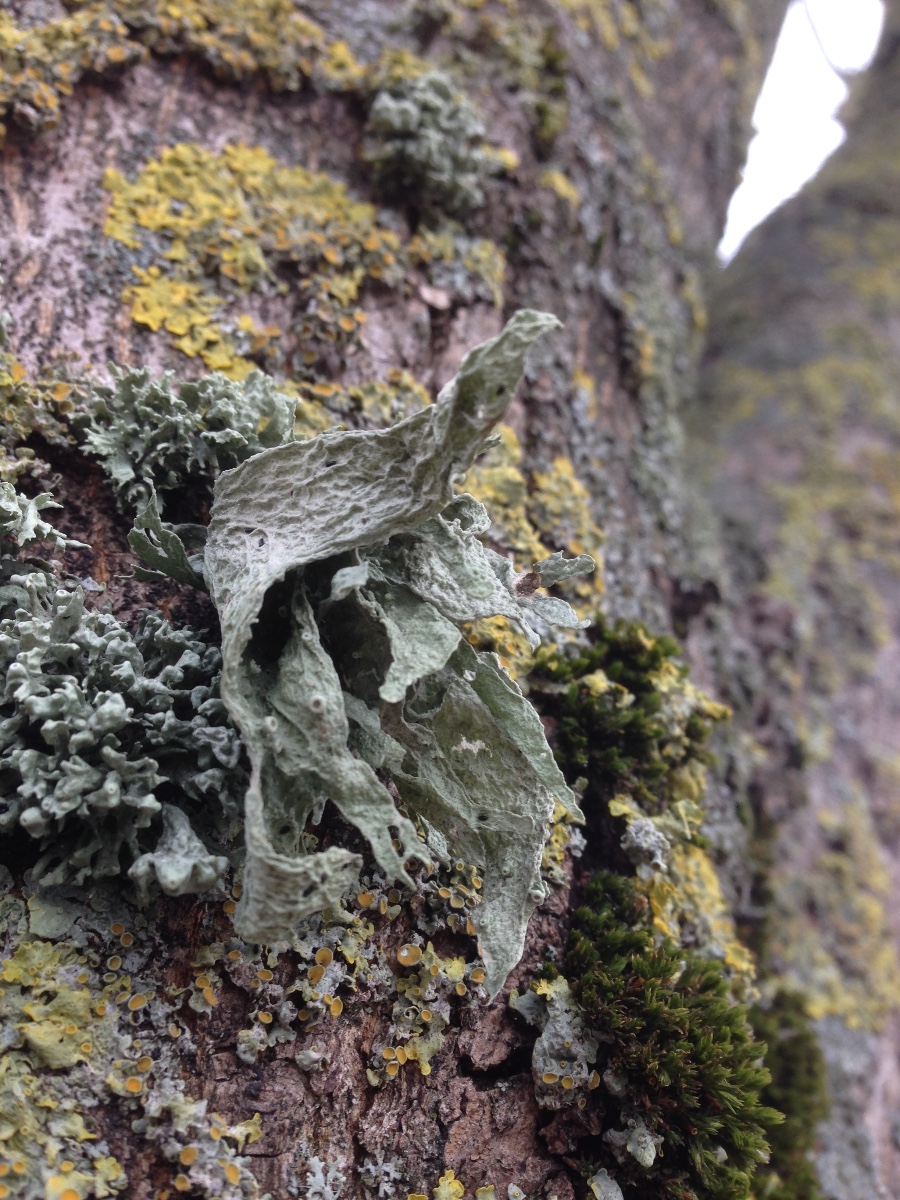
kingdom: Fungi
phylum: Ascomycota
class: Lecanoromycetes
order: Lecanorales
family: Ramalinaceae
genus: Ramalina
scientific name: Ramalina fraxinea
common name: stor grenlav
